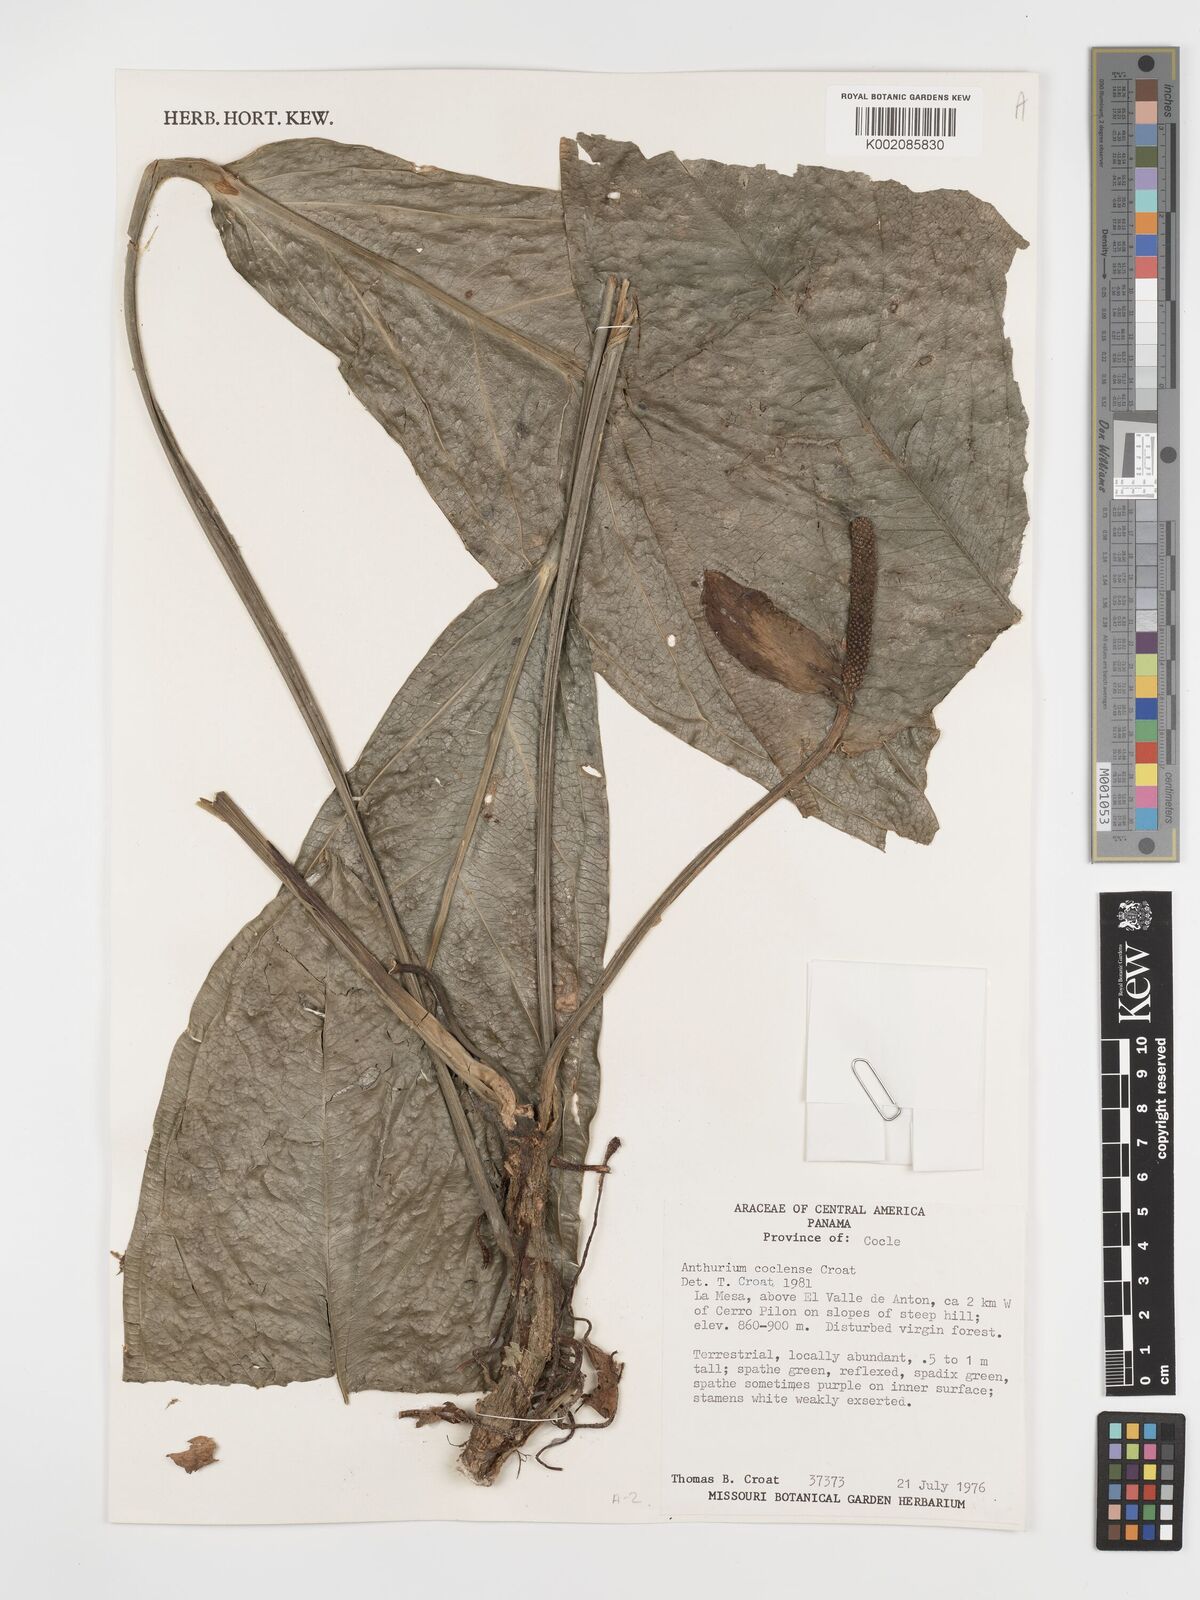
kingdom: Plantae
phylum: Tracheophyta
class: Liliopsida
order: Alismatales
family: Araceae
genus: Anthurium
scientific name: Anthurium coclense
